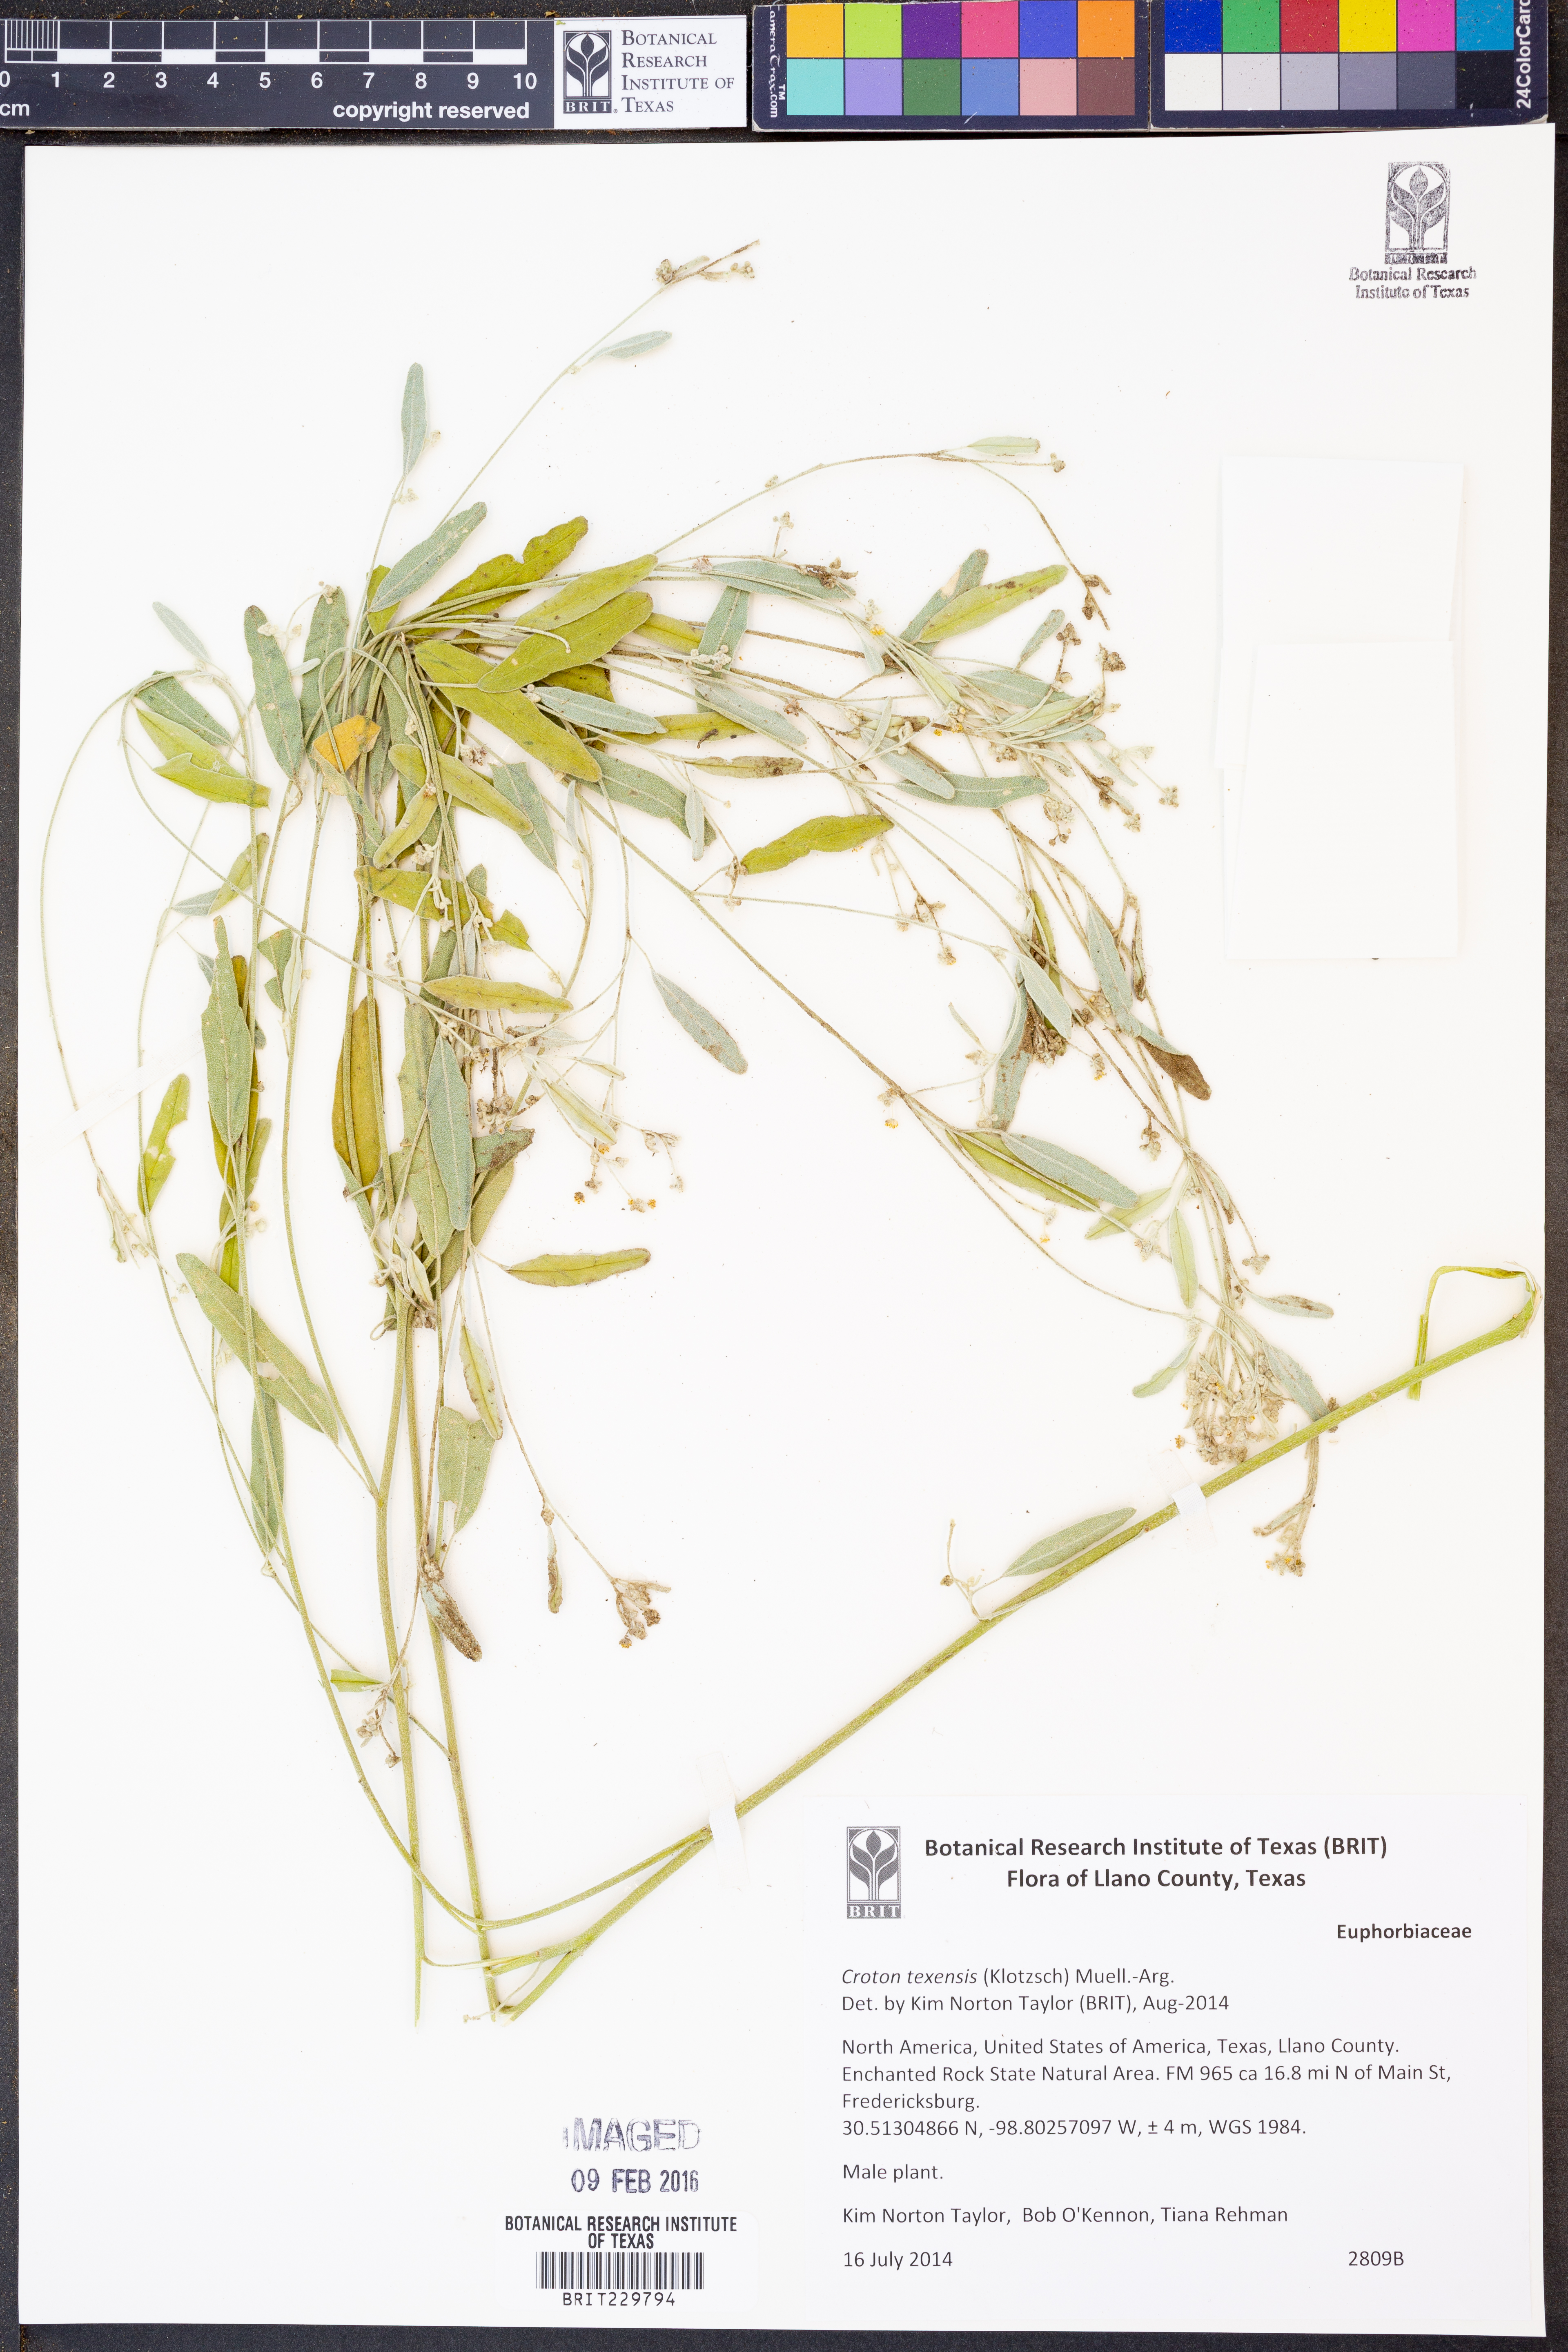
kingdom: Plantae
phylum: Tracheophyta
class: Magnoliopsida
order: Malpighiales
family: Euphorbiaceae
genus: Croton
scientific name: Croton texensis
